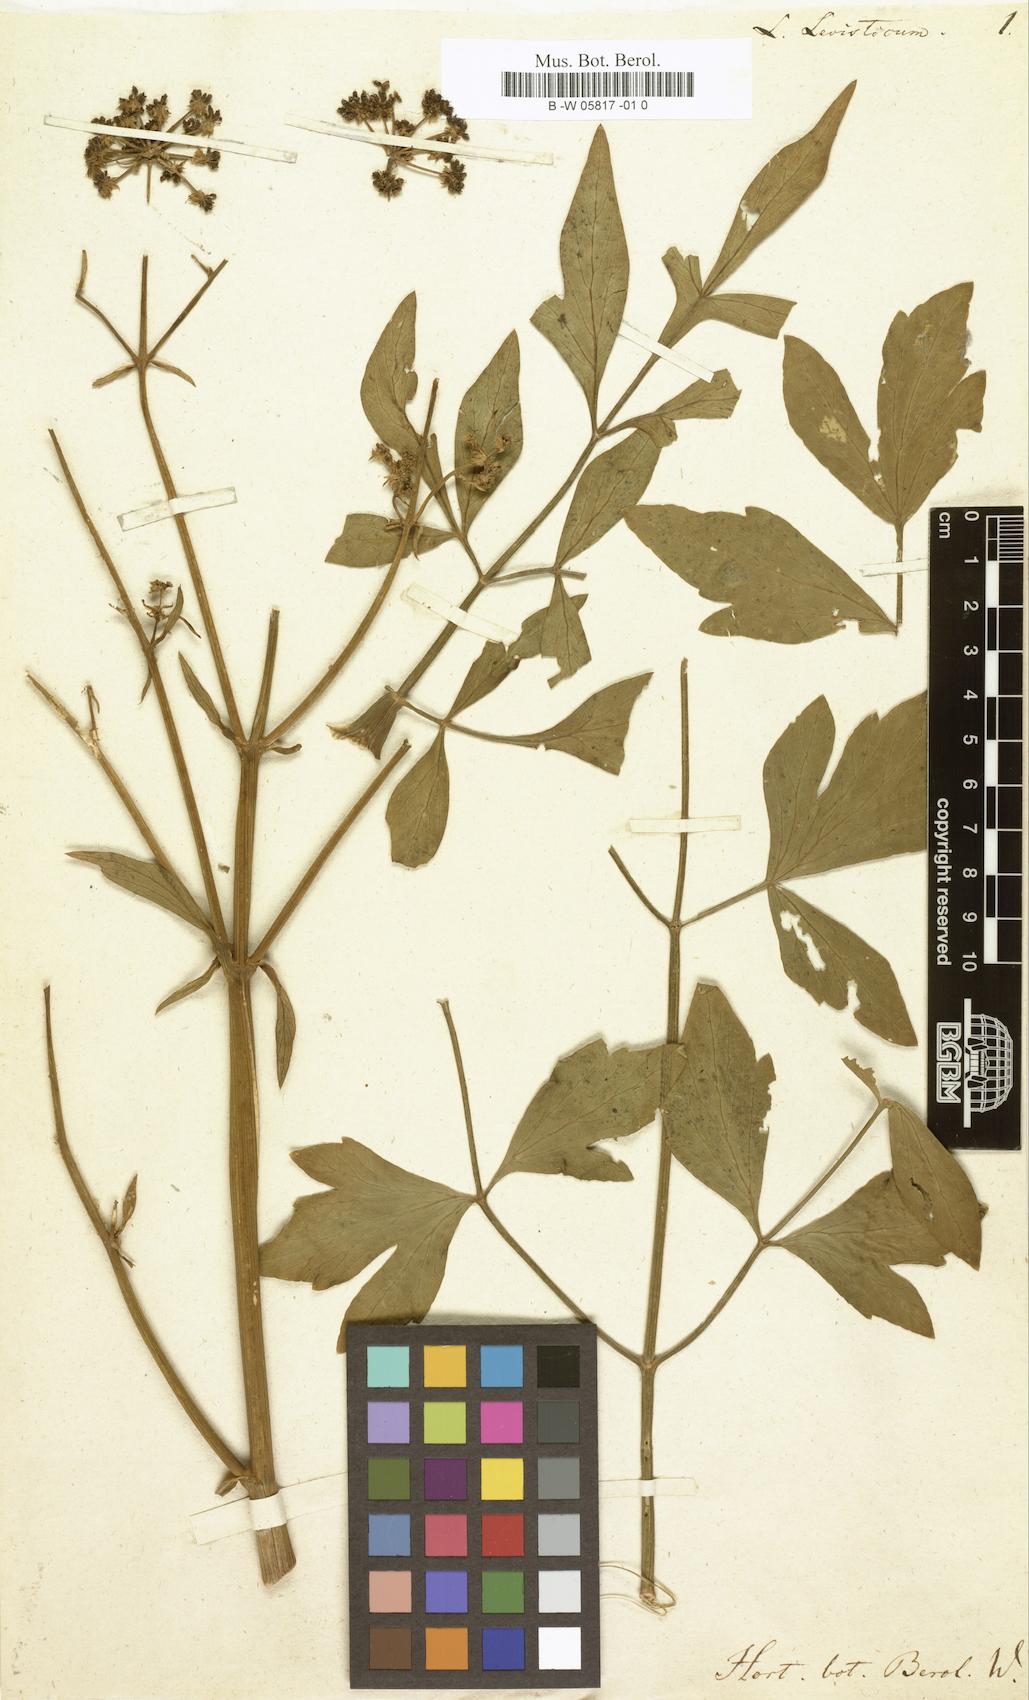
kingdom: Plantae
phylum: Tracheophyta
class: Magnoliopsida
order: Apiales
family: Apiaceae
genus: Levisticum
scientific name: Levisticum officinale
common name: Lovage
